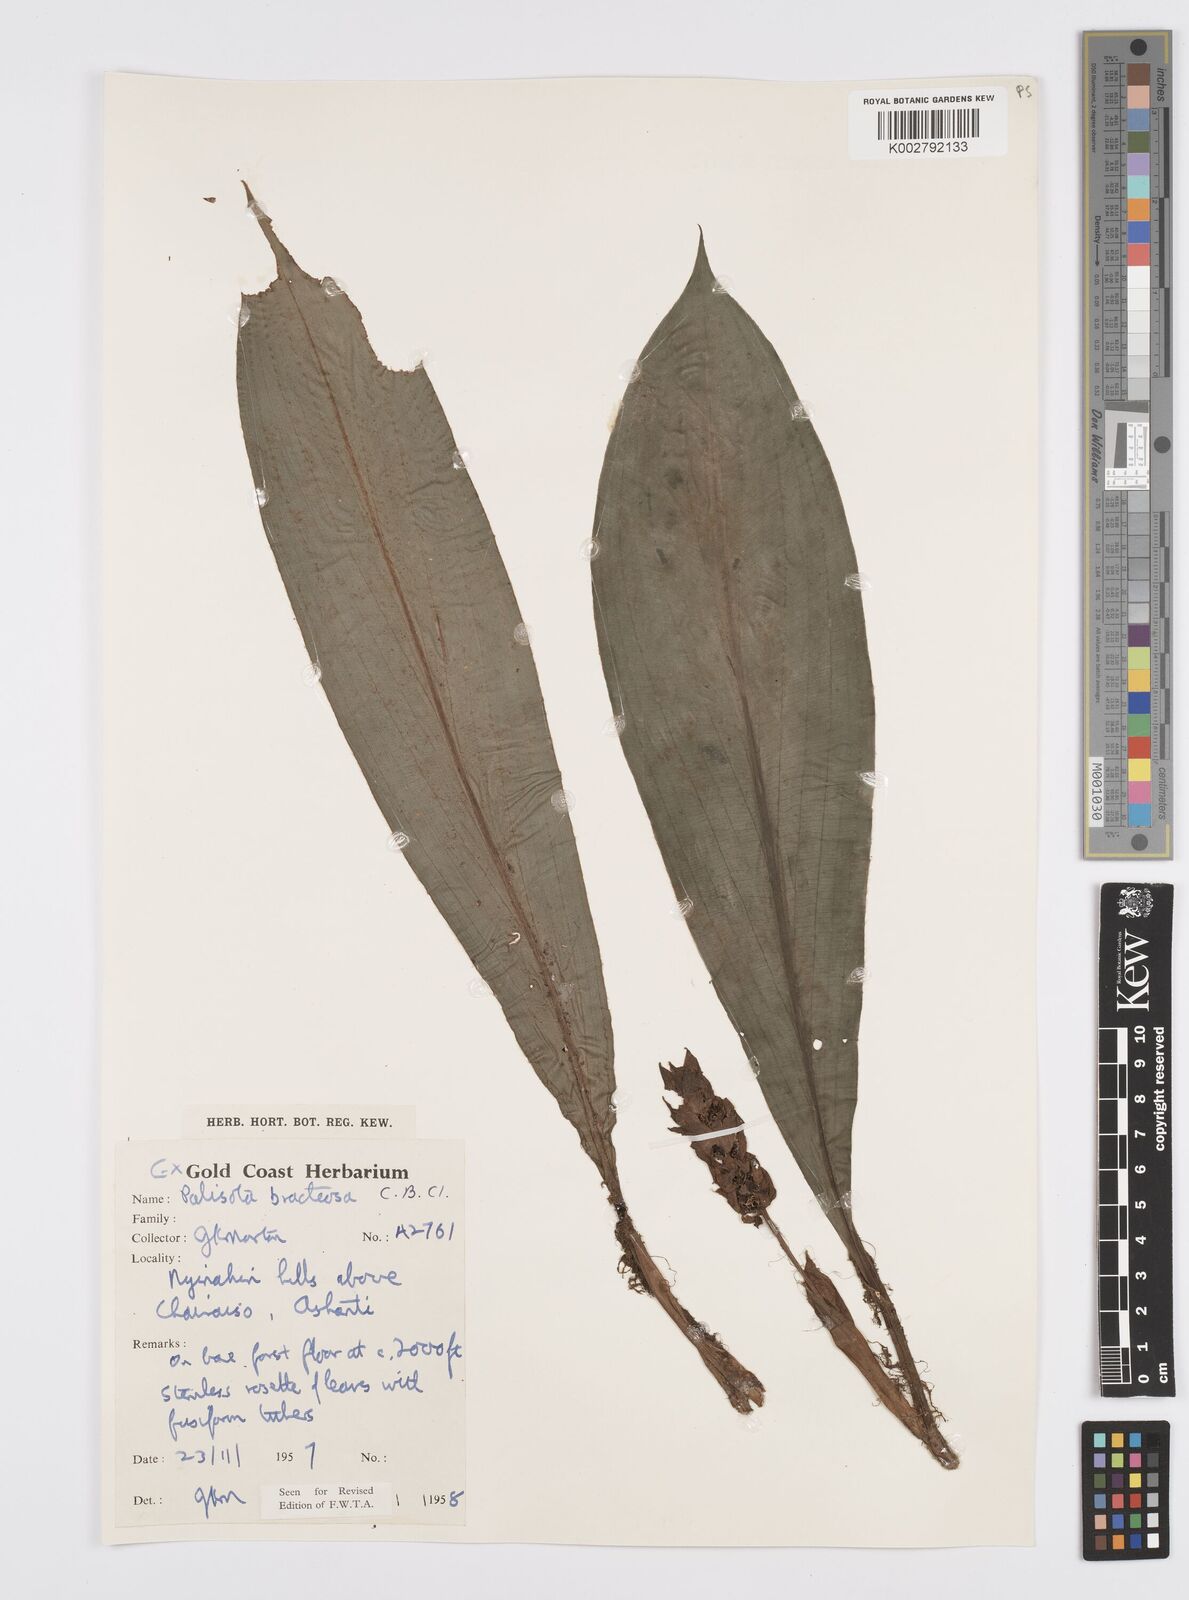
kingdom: Plantae
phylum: Tracheophyta
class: Liliopsida
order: Commelinales
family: Commelinaceae
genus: Palisota
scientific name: Palisota bracteosa
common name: Palisota
